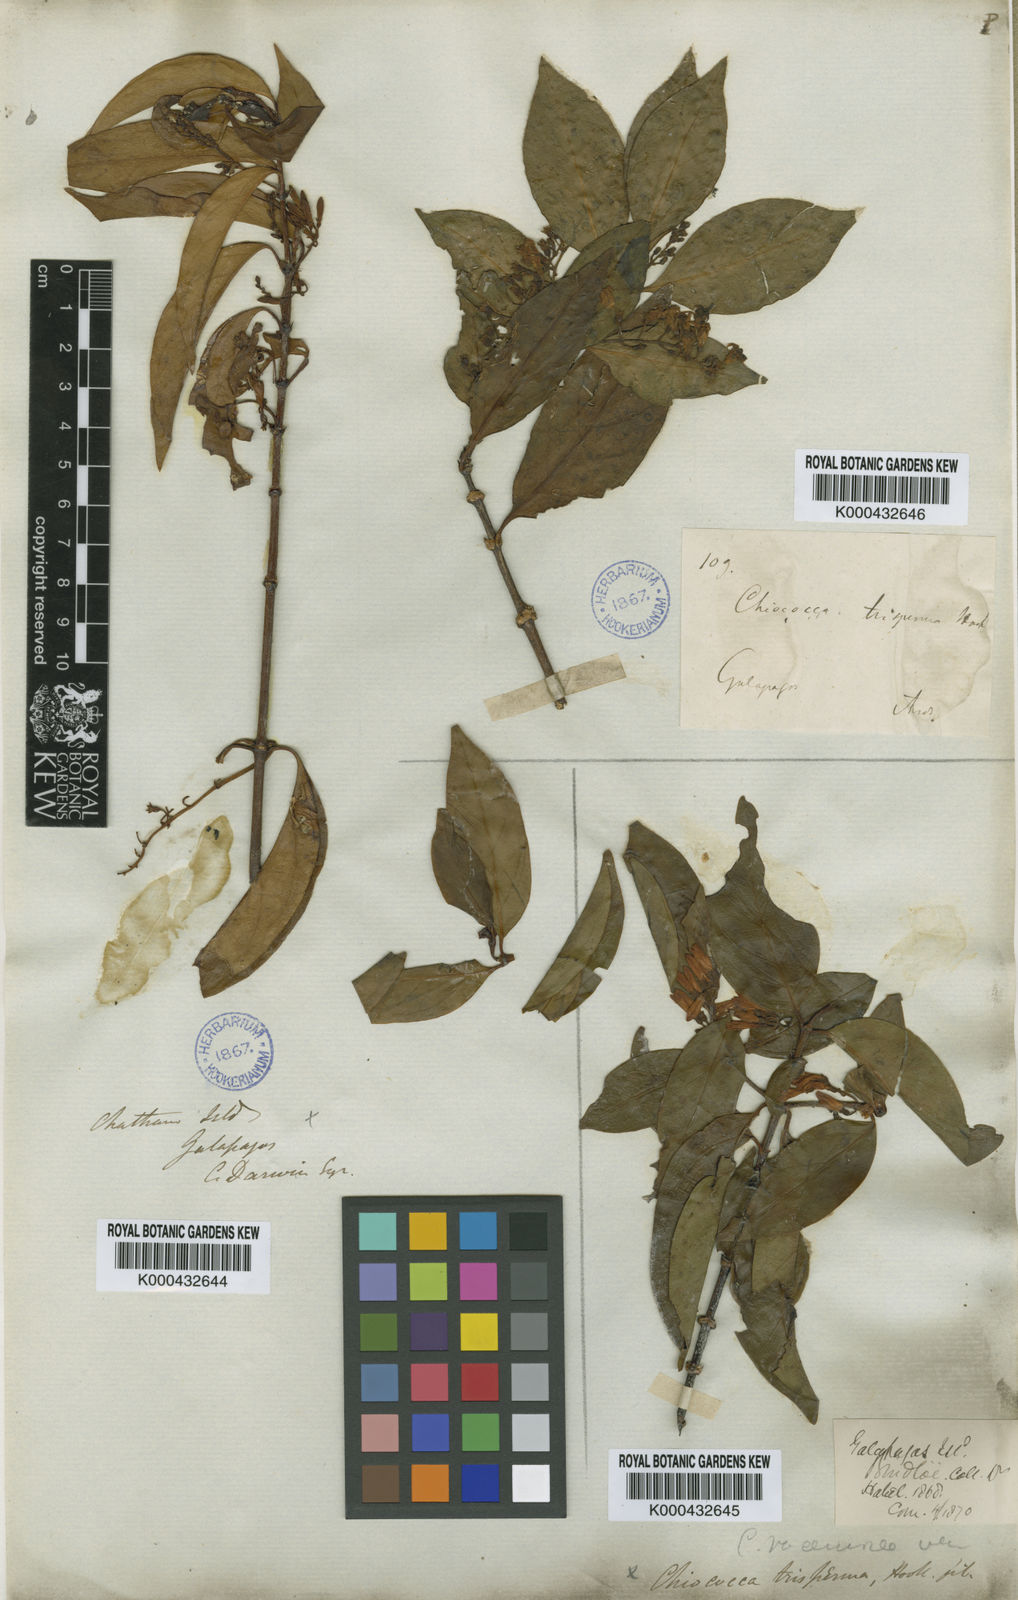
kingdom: Plantae
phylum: Tracheophyta
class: Magnoliopsida
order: Gentianales
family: Rubiaceae
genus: Chiococca
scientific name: Chiococca alba
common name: Snowberry
